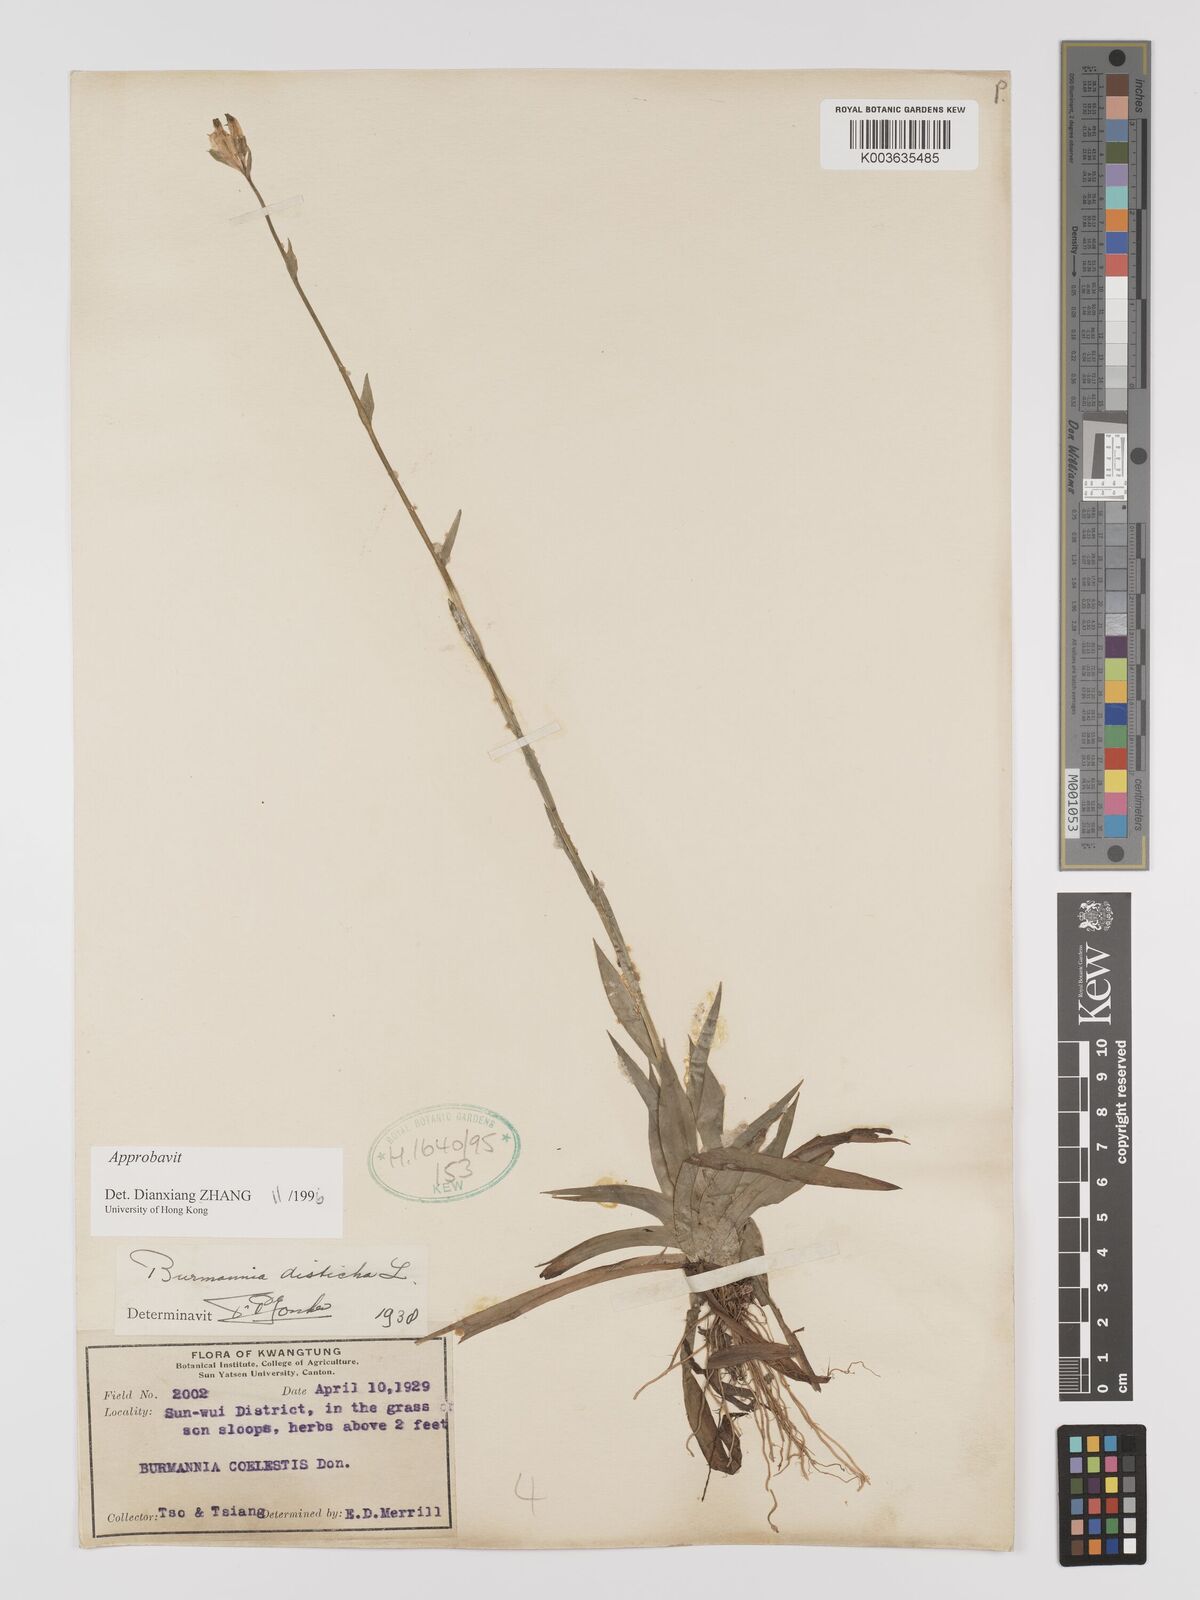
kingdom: Plantae
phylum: Tracheophyta
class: Liliopsida
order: Dioscoreales
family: Burmanniaceae
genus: Burmannia
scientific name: Burmannia disticha
